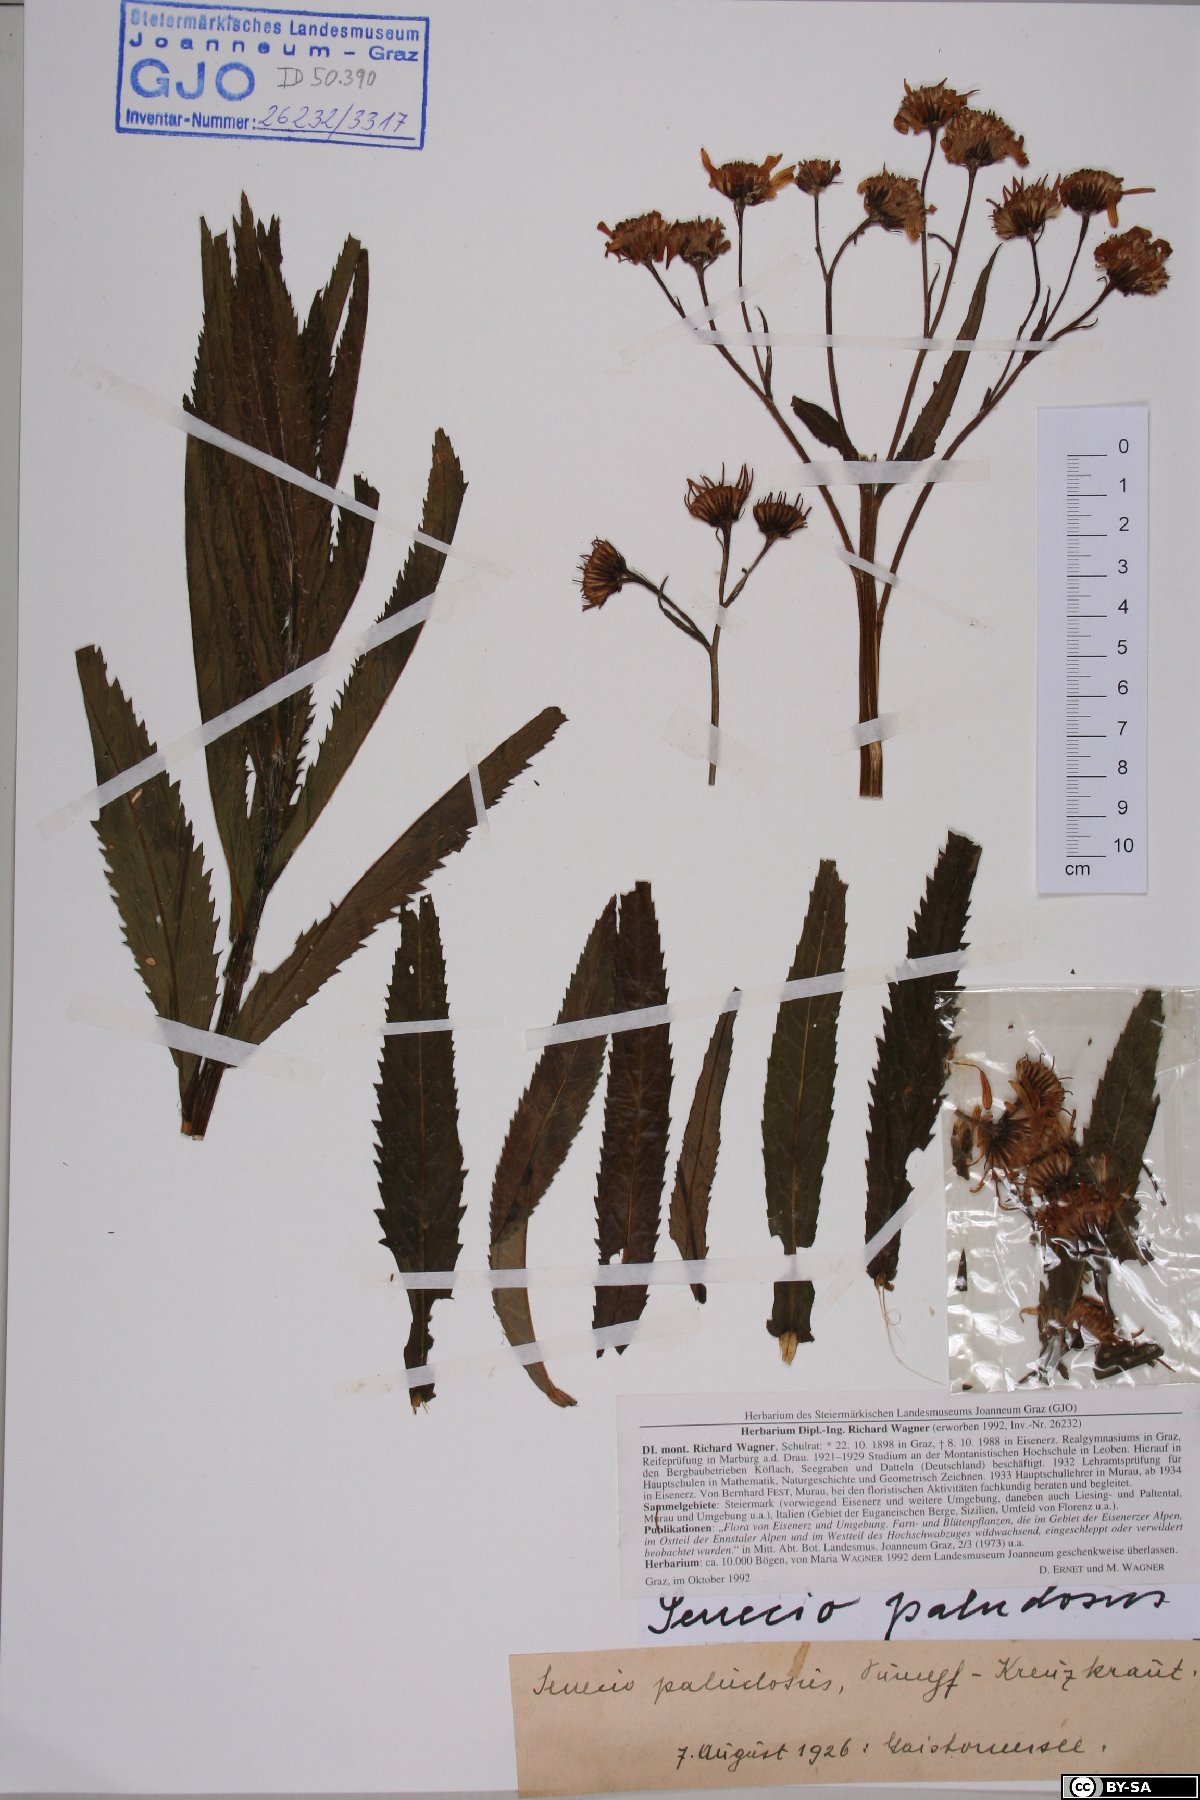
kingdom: Plantae
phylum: Tracheophyta
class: Magnoliopsida
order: Asterales
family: Asteraceae
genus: Jacobaea
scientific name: Jacobaea paludosa
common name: Fen ragwort
